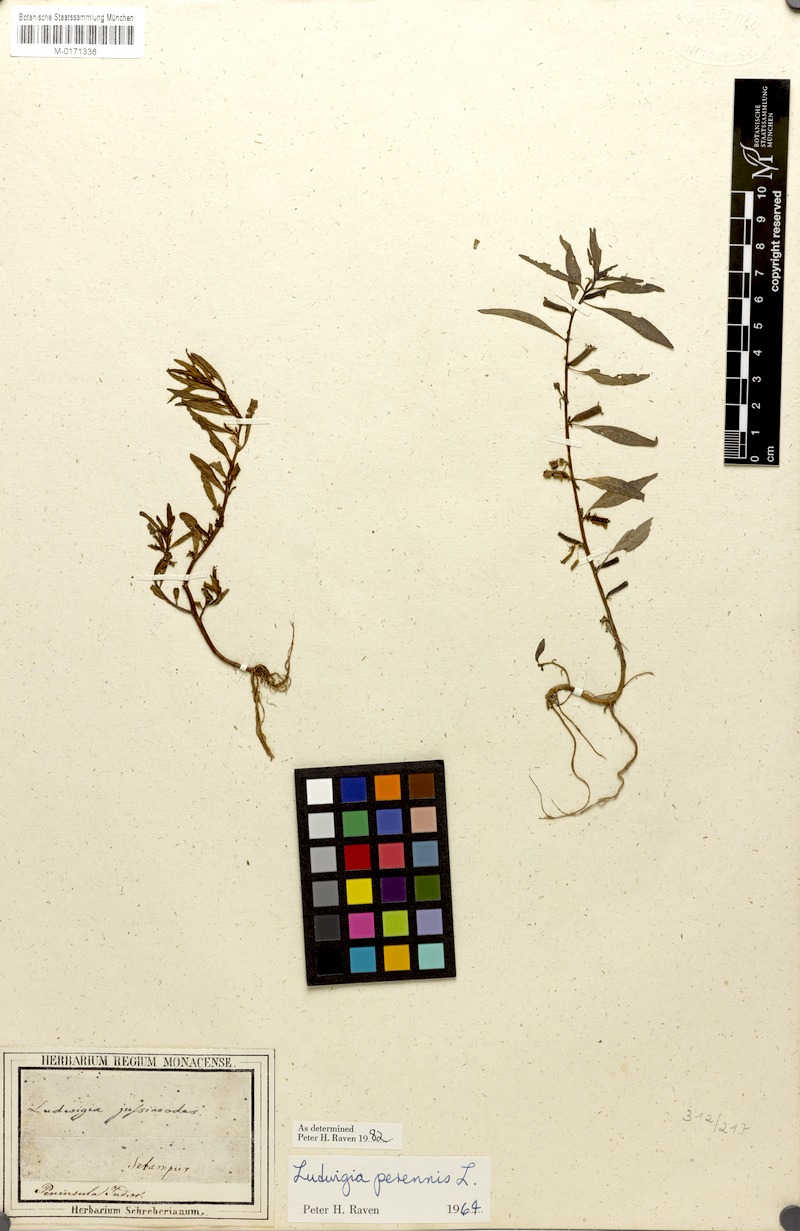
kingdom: Plantae
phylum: Tracheophyta
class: Magnoliopsida
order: Myrtales
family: Onagraceae
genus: Ludwigia
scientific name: Ludwigia perennis
